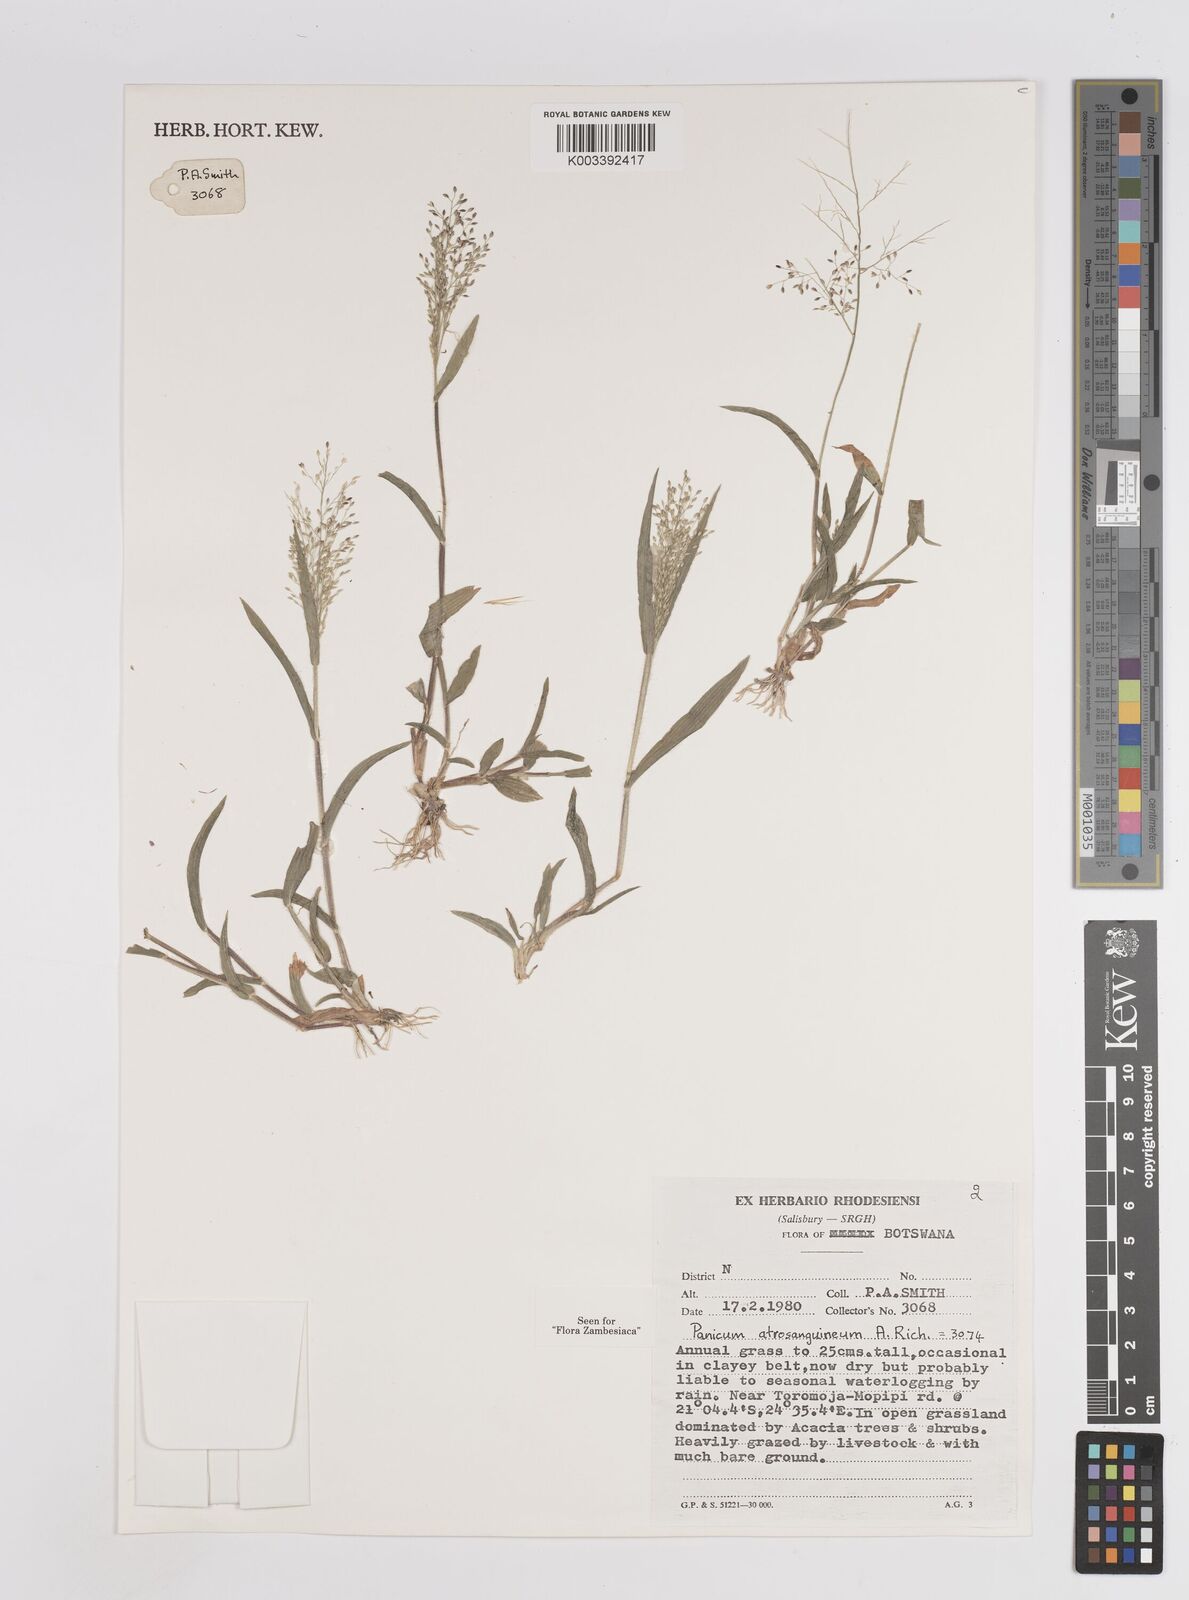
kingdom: Plantae
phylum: Tracheophyta
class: Liliopsida
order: Poales
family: Poaceae
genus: Panicum
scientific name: Panicum atrosanguineum
